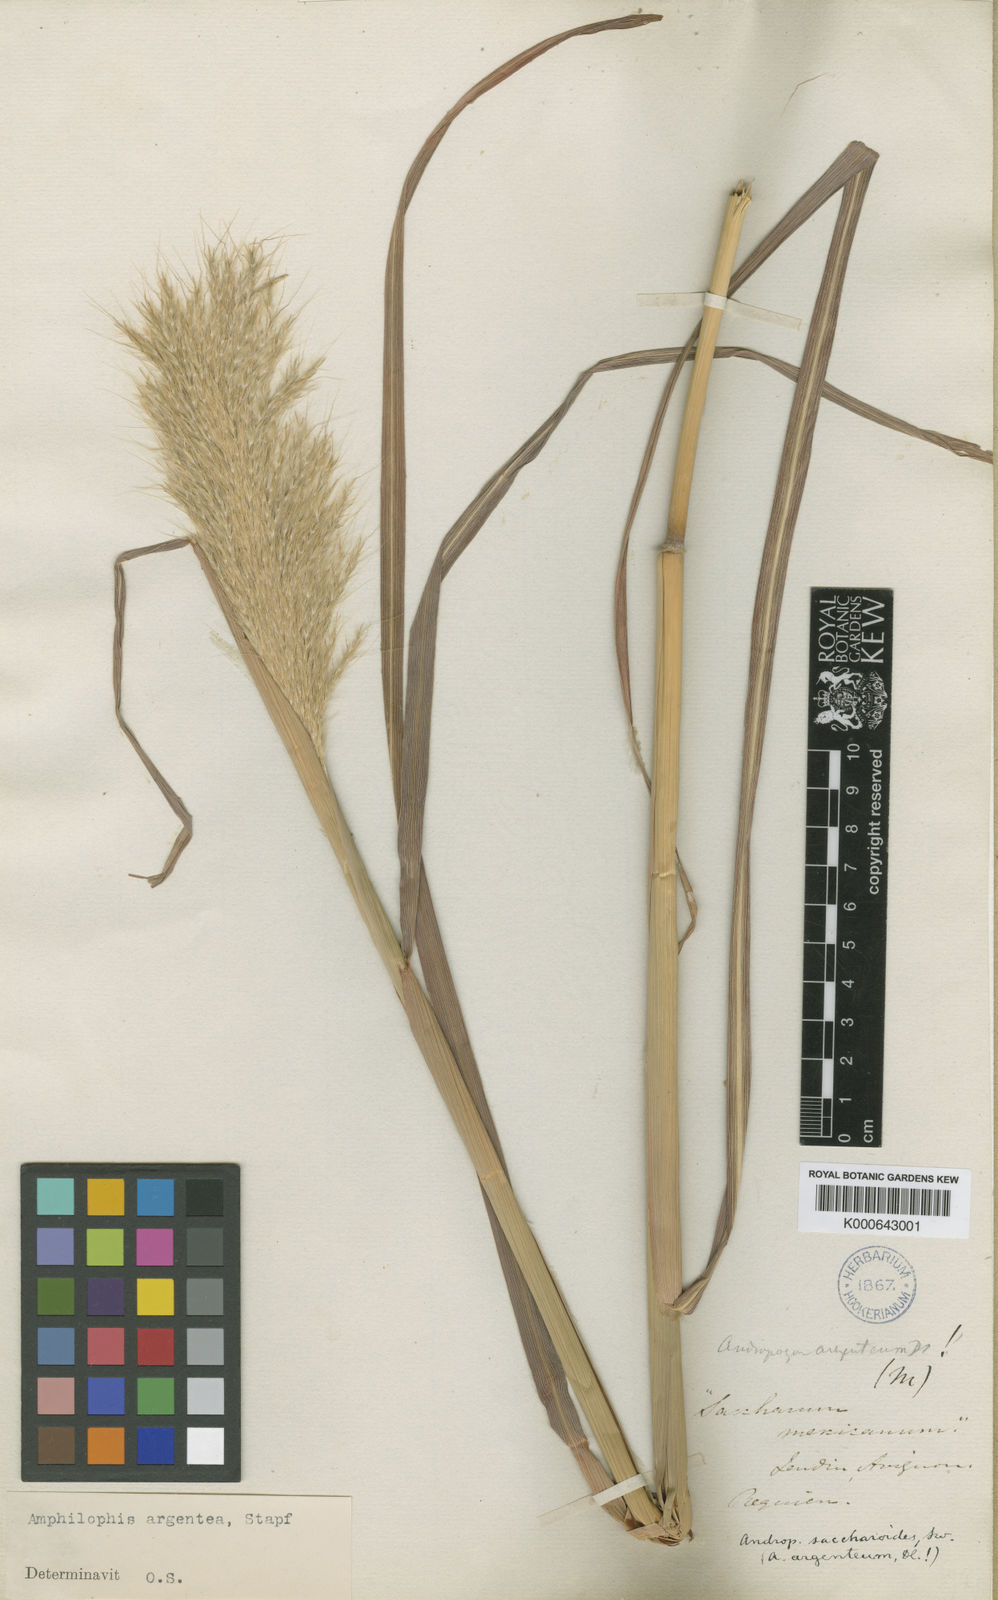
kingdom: Plantae
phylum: Tracheophyta
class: Liliopsida
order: Poales
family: Poaceae
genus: Bothriochloa
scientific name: Bothriochloa alta
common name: Tall bluestem
